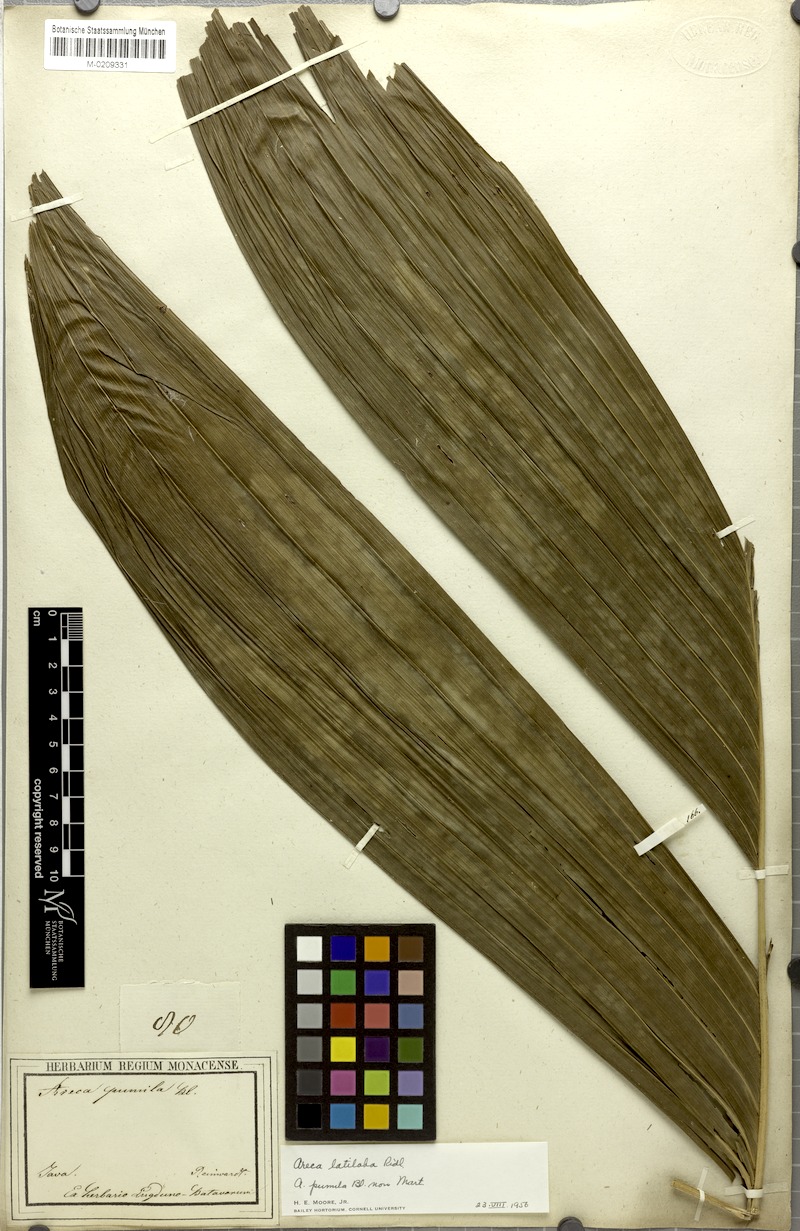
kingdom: Plantae
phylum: Tracheophyta
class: Liliopsida
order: Arecales
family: Arecaceae
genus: Nenga
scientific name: Nenga pumila
